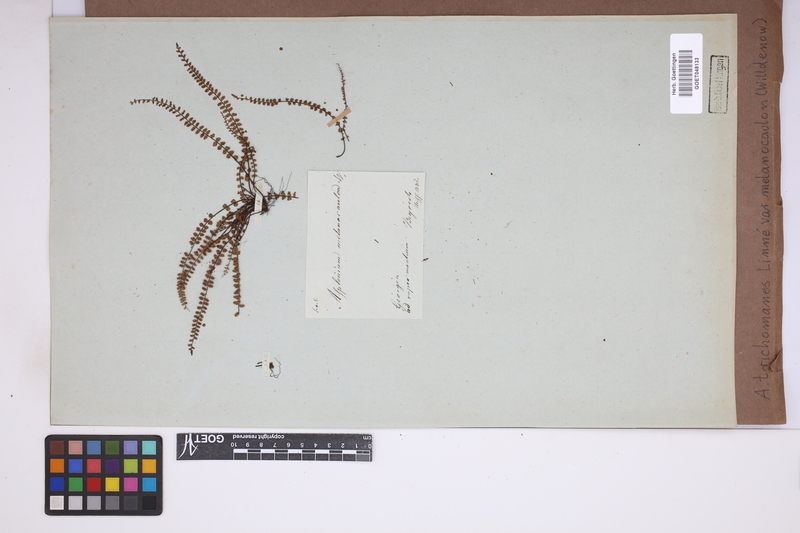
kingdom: Plantae
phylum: Tracheophyta
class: Polypodiopsida
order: Polypodiales
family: Aspleniaceae
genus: Asplenium
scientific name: Asplenium trichomanes
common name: Maidenhair spleenwort
